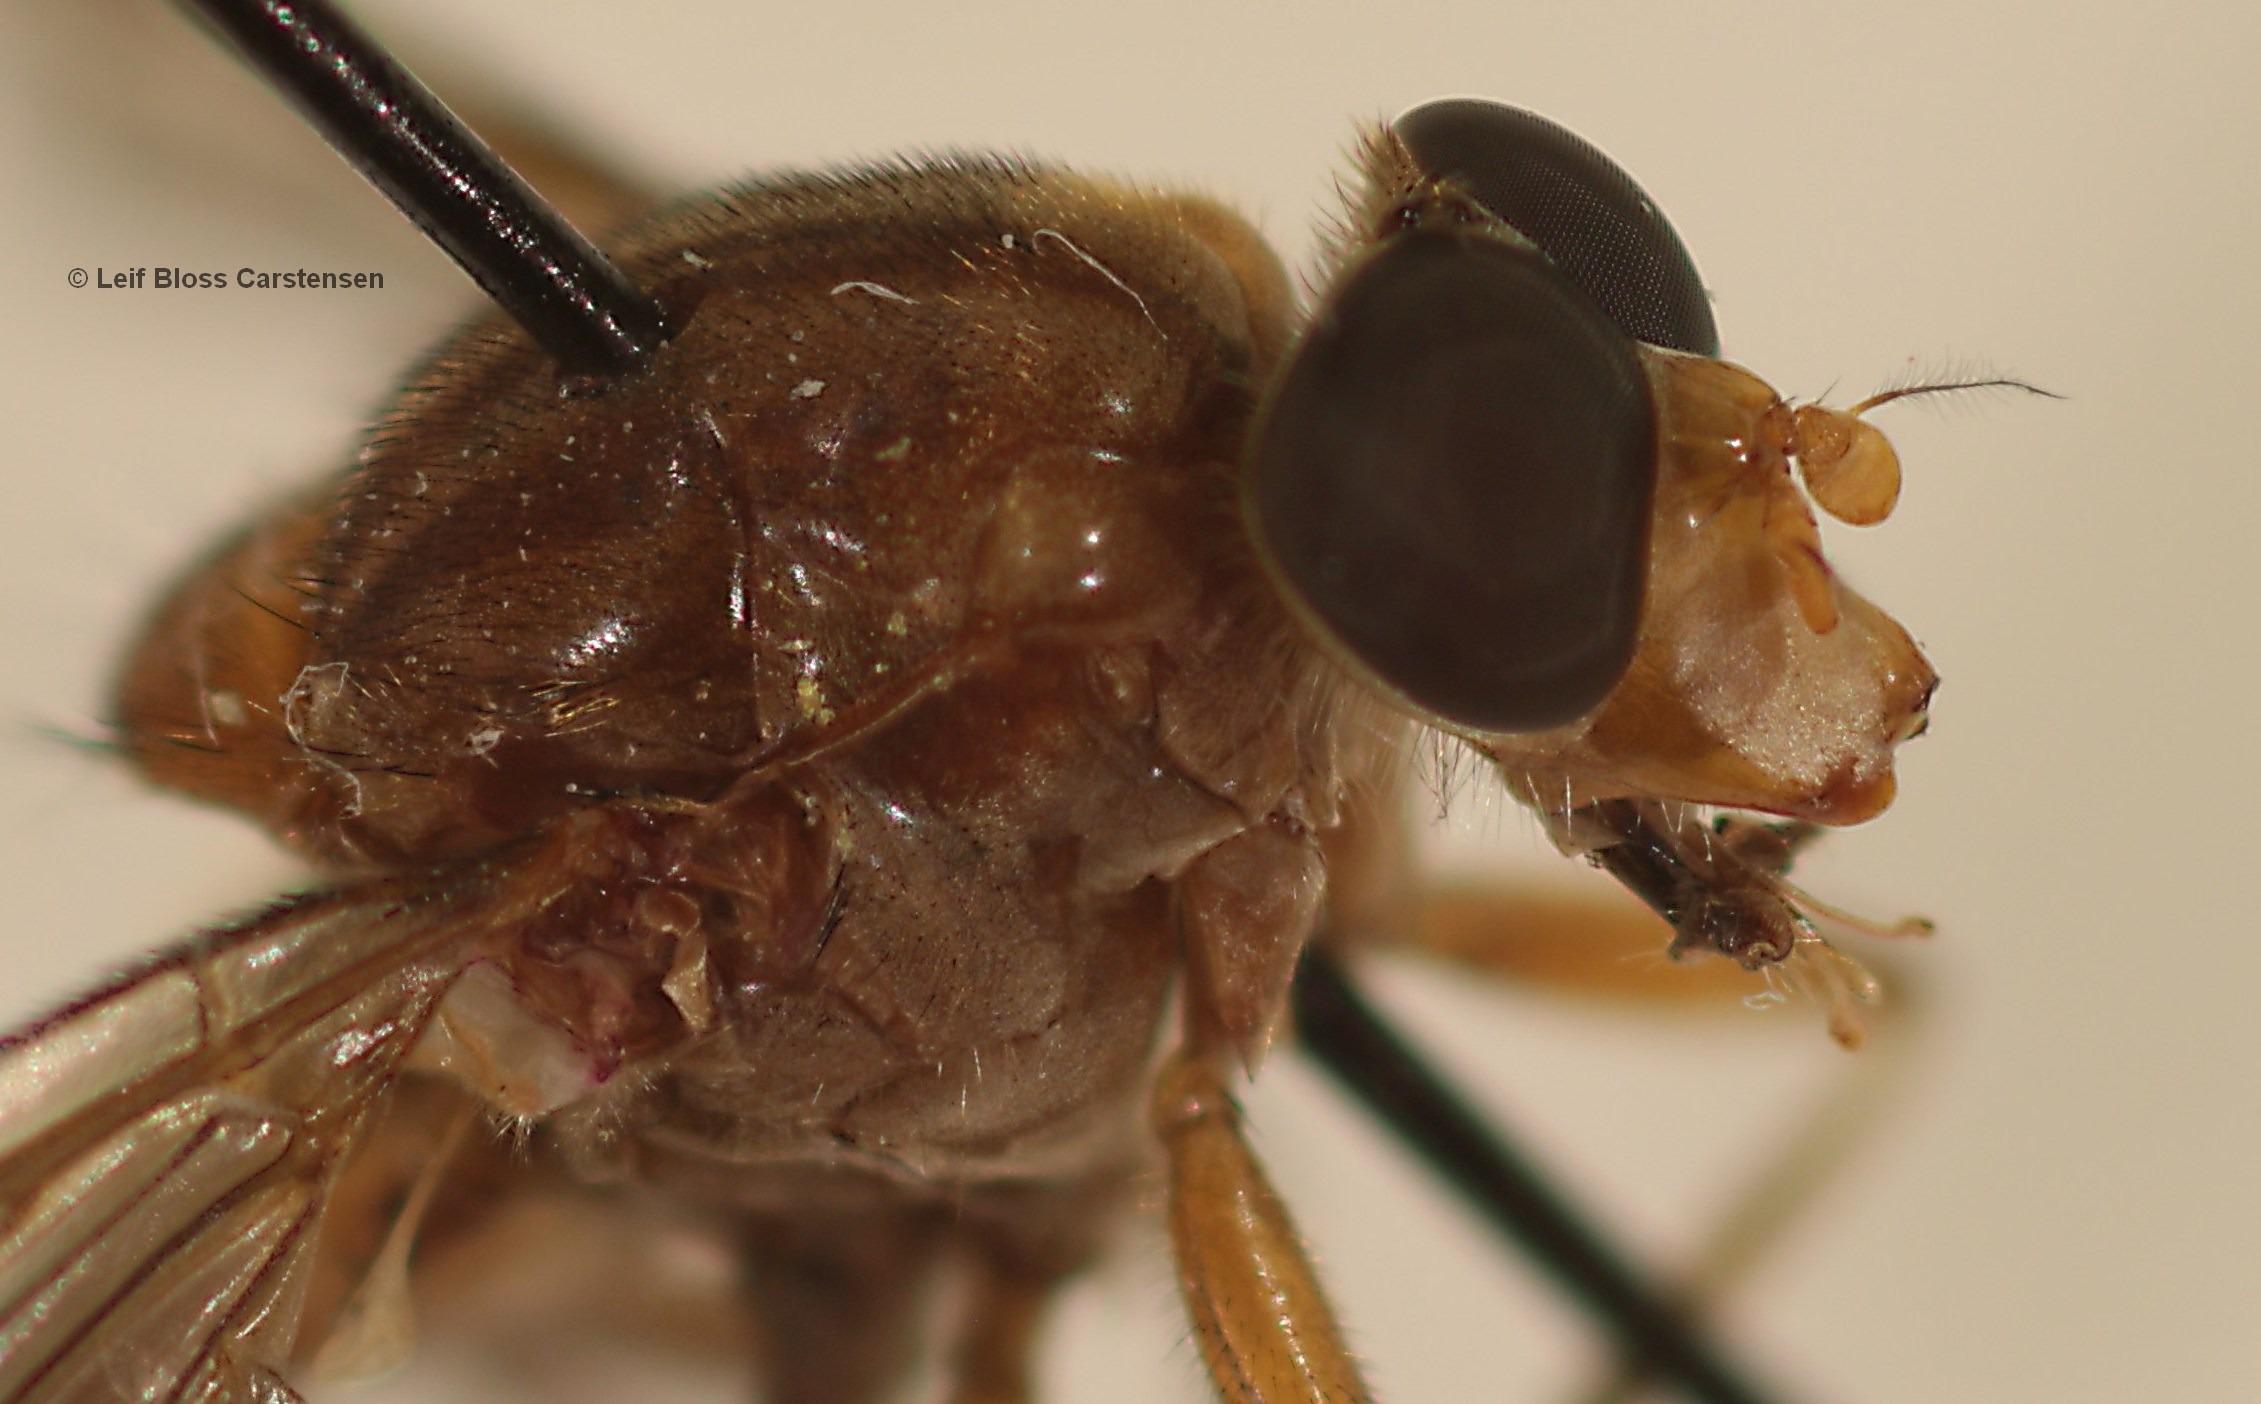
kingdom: Animalia
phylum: Arthropoda
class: Insecta
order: Diptera
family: Syrphidae
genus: Brachyopa
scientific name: Brachyopa vittata
